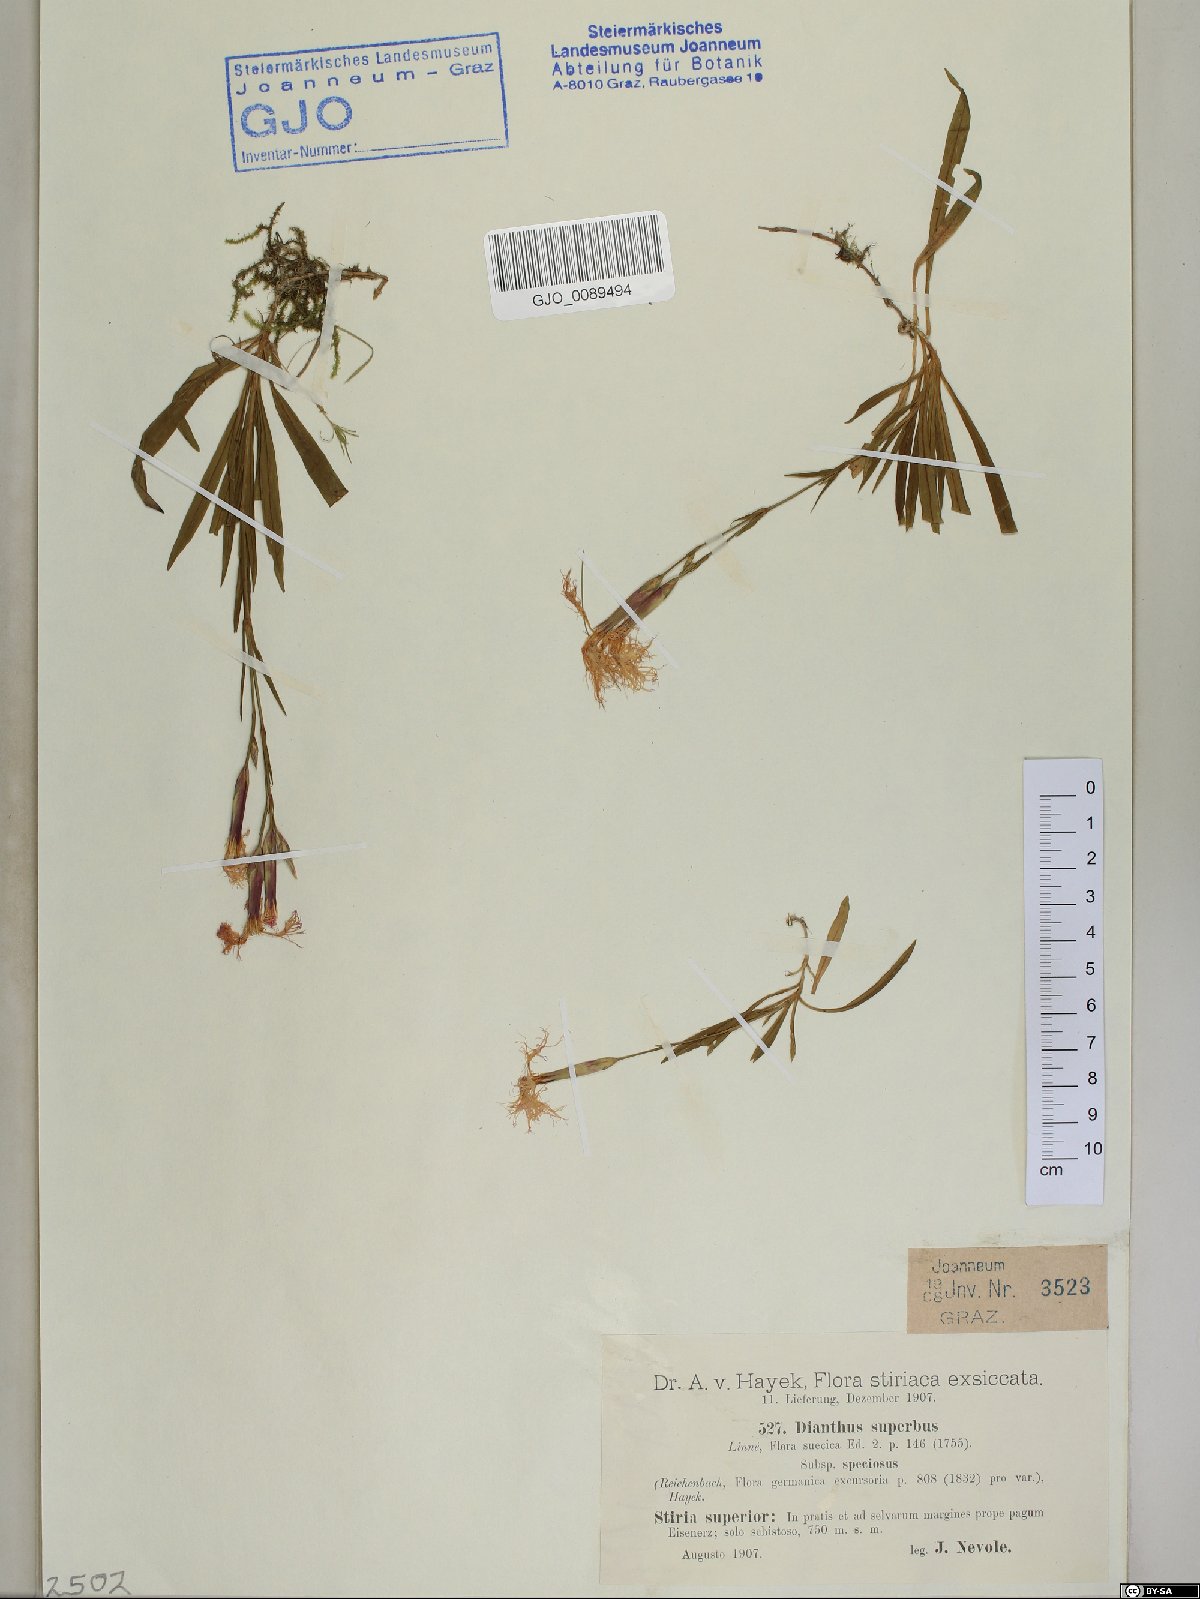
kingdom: Plantae
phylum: Tracheophyta
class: Magnoliopsida
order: Caryophyllales
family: Caryophyllaceae
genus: Dianthus
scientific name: Dianthus superbus
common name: Fringed pink
